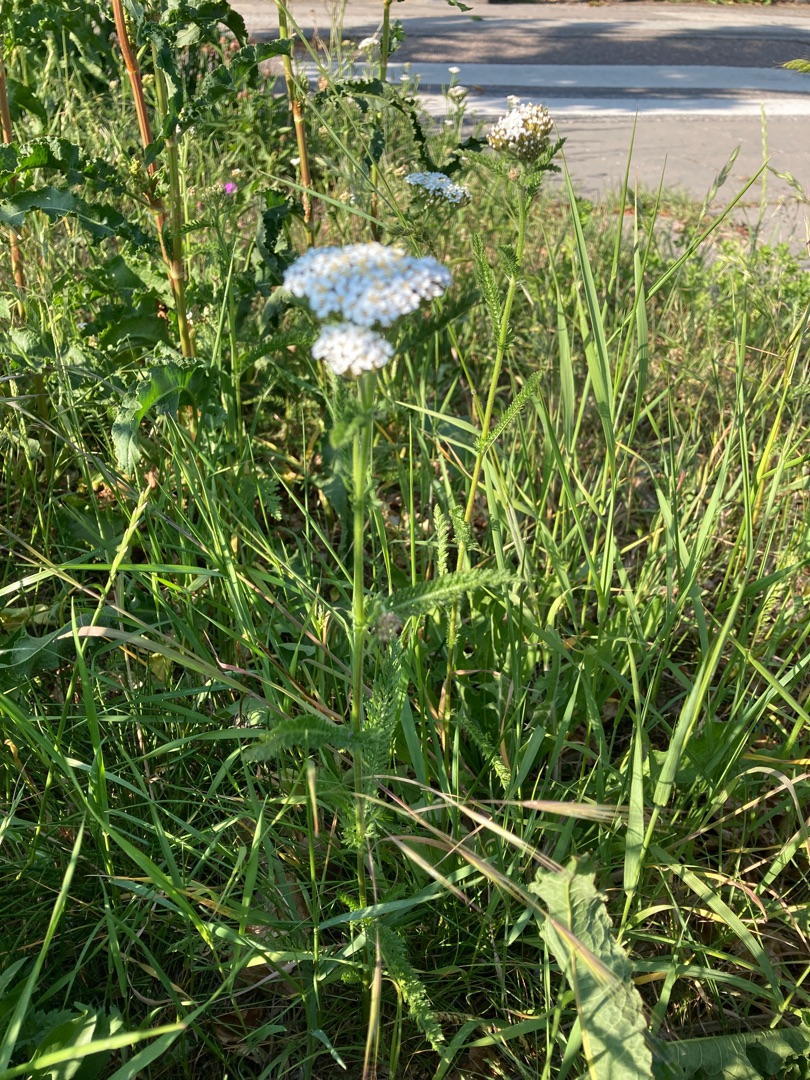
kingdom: Plantae
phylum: Tracheophyta
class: Magnoliopsida
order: Asterales
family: Asteraceae
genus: Achillea
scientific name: Achillea millefolium
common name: Almindelig røllike
